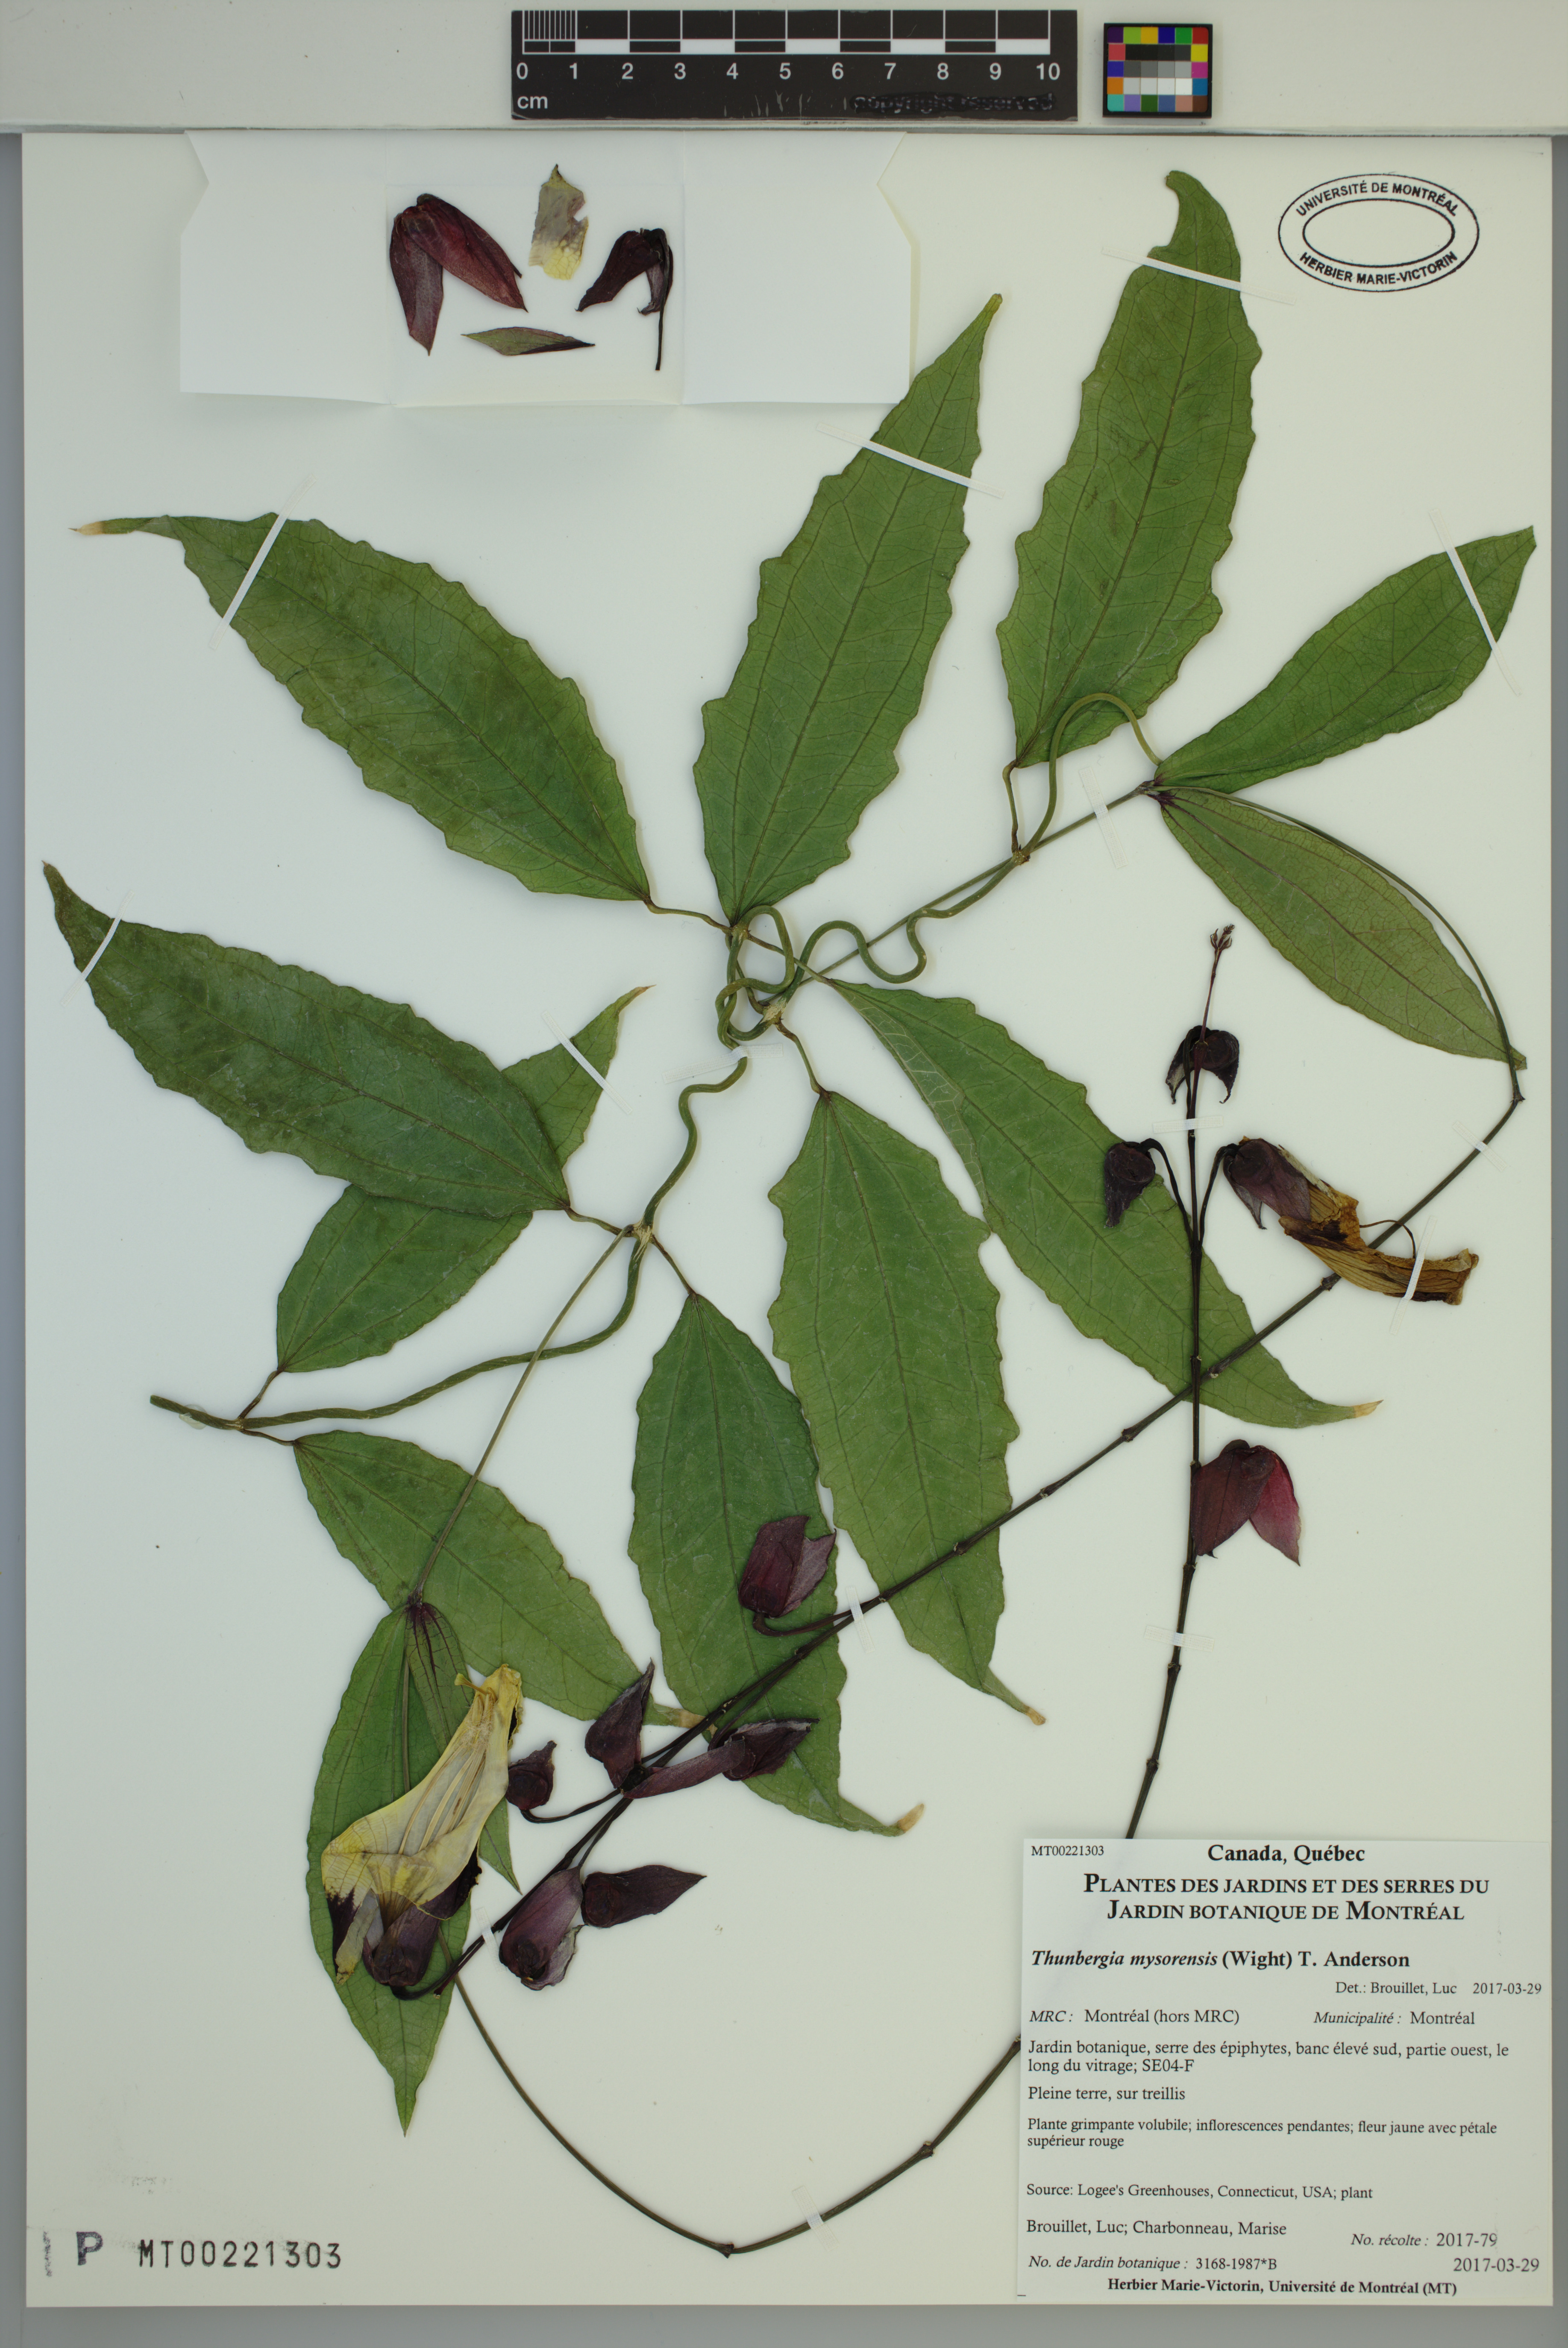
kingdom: Plantae
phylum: Tracheophyta
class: Magnoliopsida
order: Lamiales
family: Acanthaceae
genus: Thunbergia
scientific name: Thunbergia mysorensis
